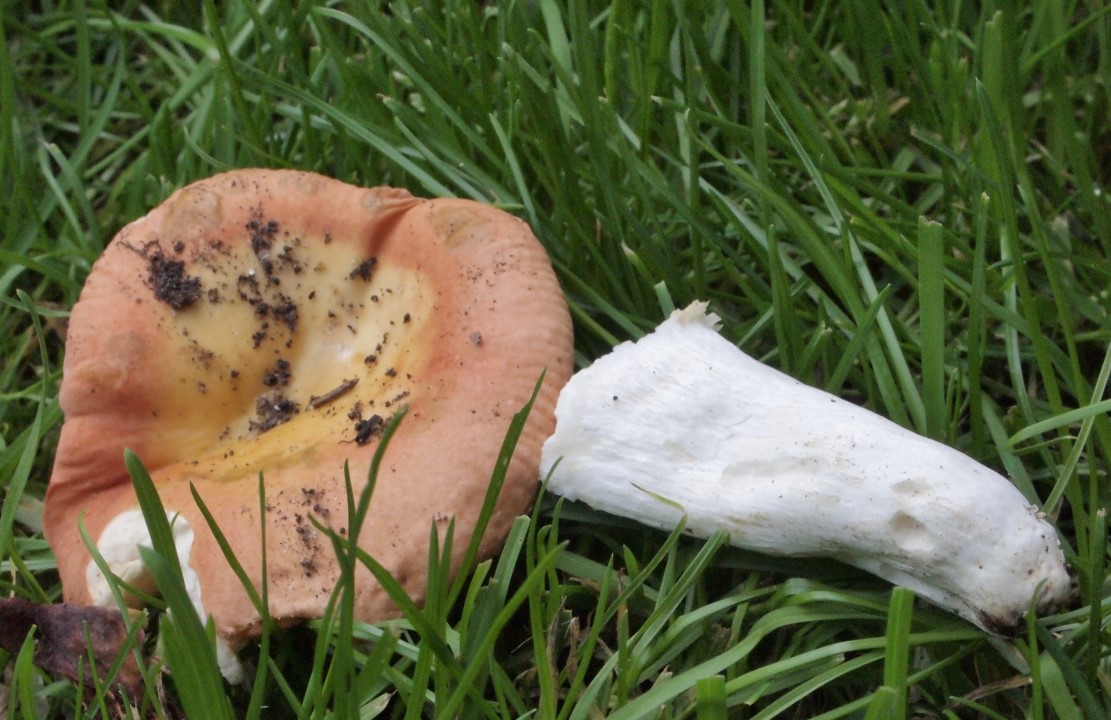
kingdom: Fungi
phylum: Basidiomycota
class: Agaricomycetes
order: Russulales
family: Russulaceae
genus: Russula
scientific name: Russula risigallina
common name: abrikos-skørhat
